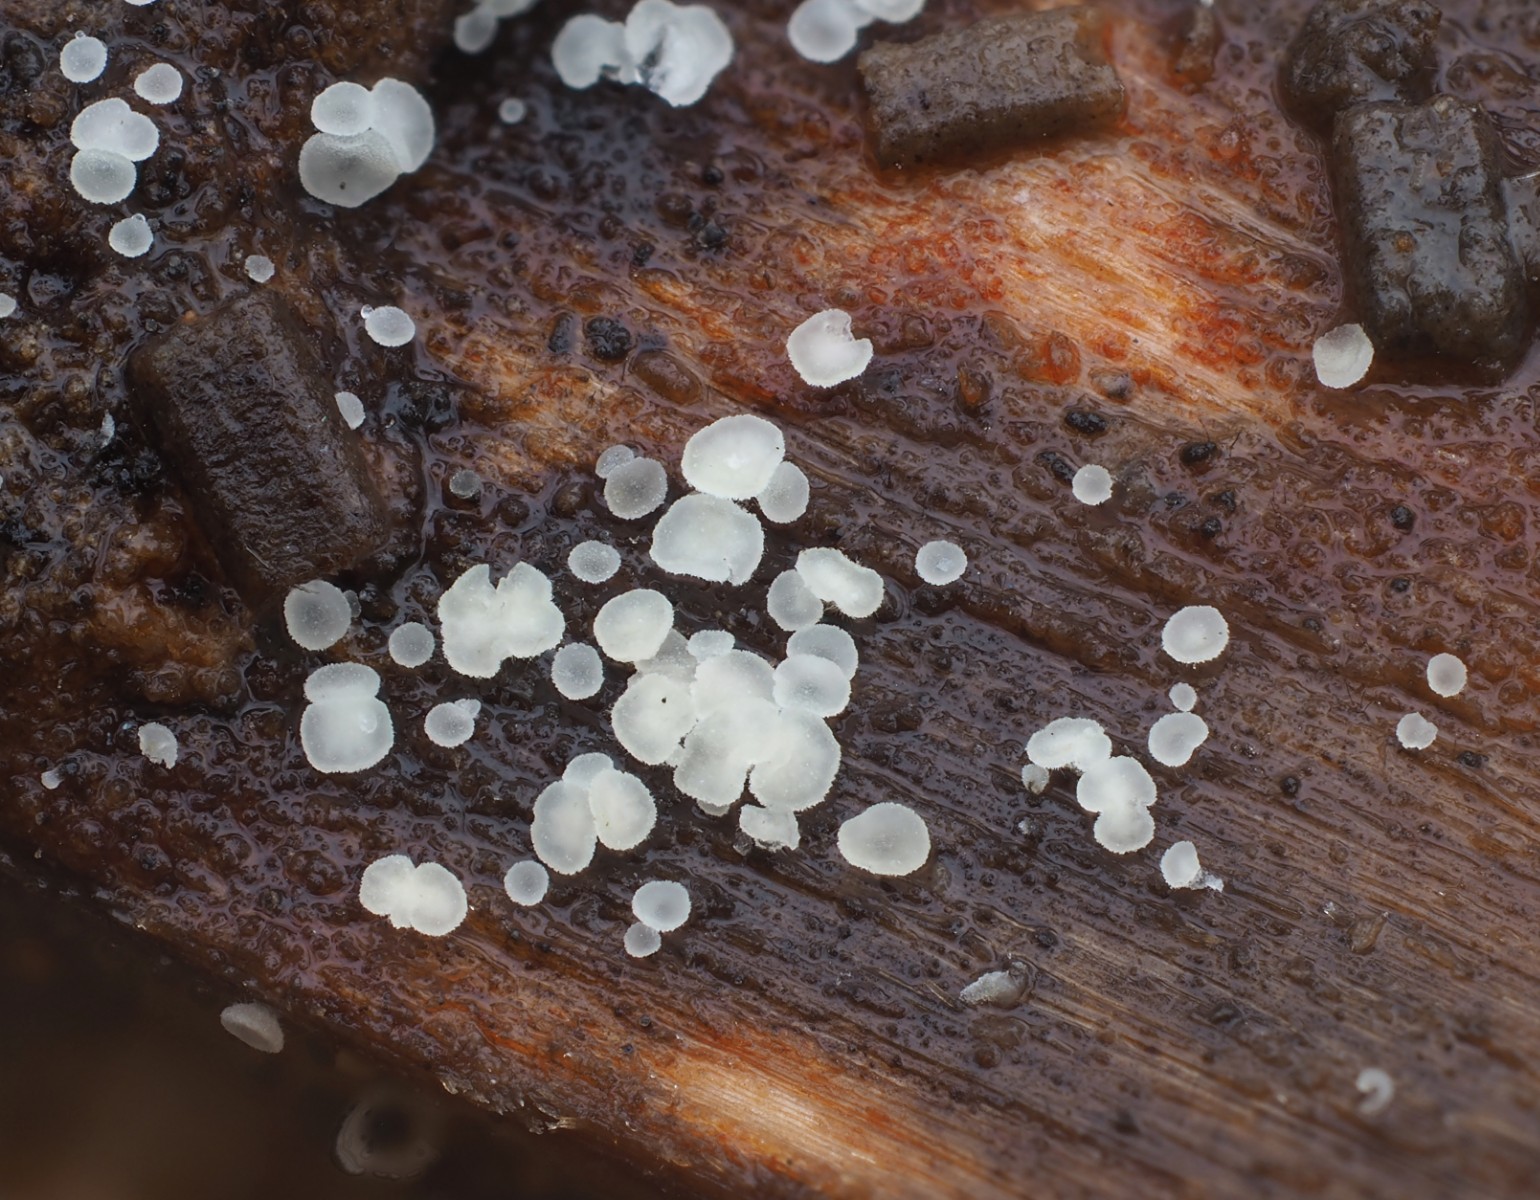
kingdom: Fungi
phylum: Ascomycota
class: Leotiomycetes
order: Helotiales
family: Hyaloscyphaceae
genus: Hyaloscypha
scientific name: Hyaloscypha
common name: klarskive
